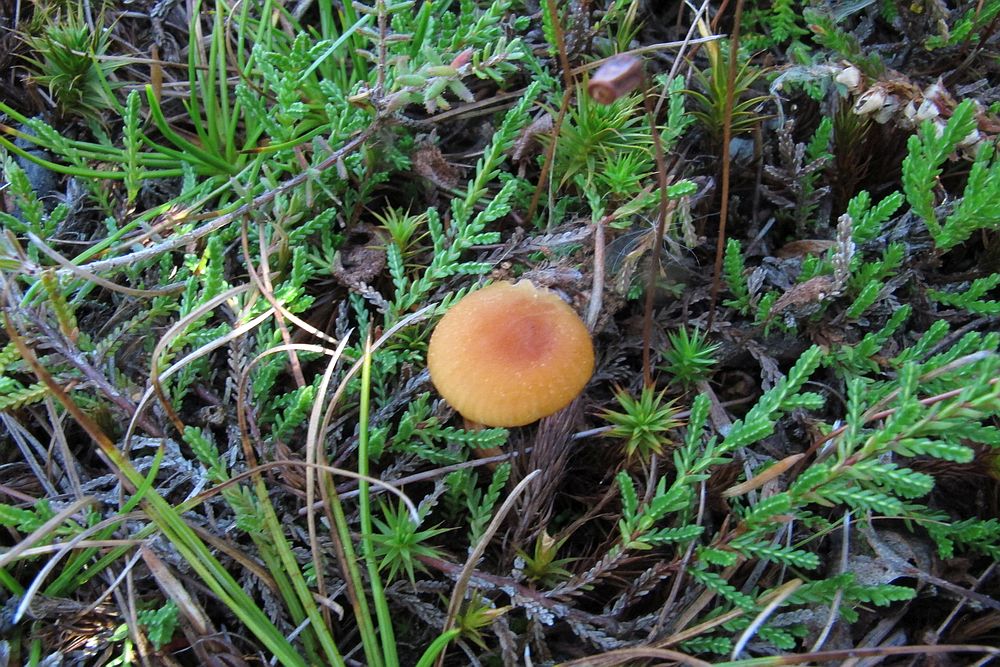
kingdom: Fungi
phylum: Basidiomycota
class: Agaricomycetes
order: Agaricales
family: Hydnangiaceae
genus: Laccaria
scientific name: Laccaria proxima
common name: stor ametysthat
